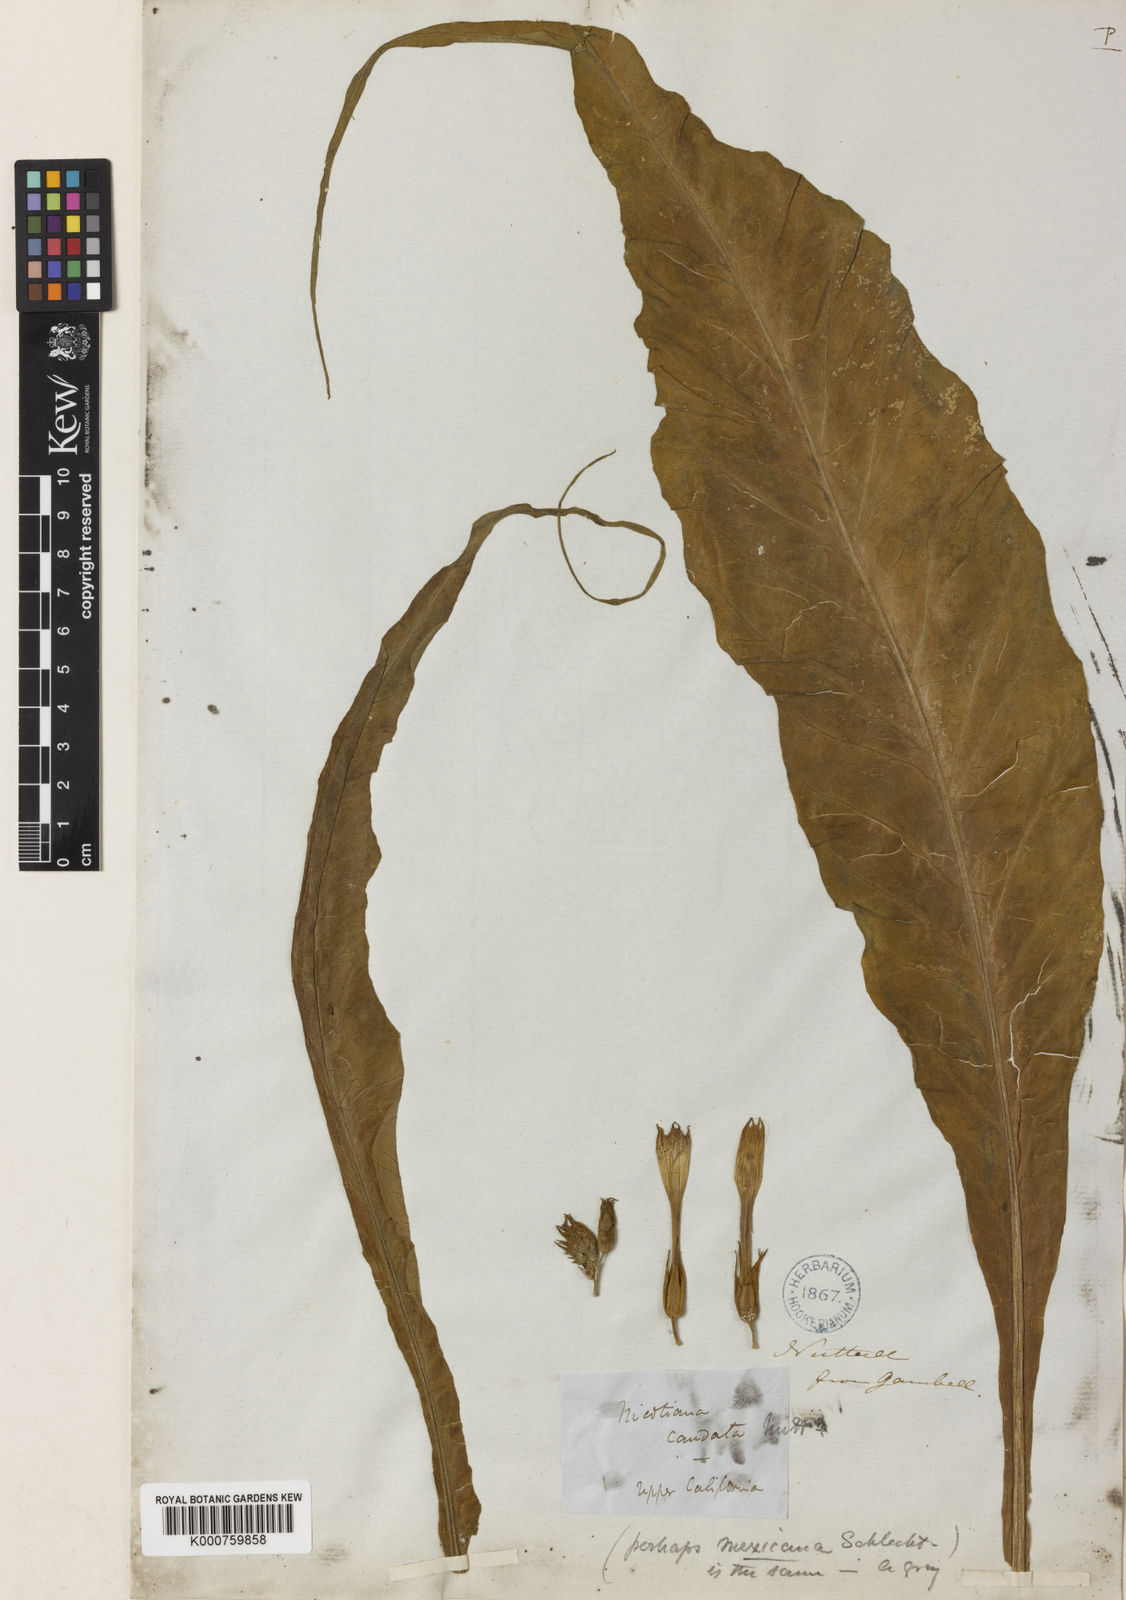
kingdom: Plantae
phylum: Tracheophyta
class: Magnoliopsida
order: Solanales
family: Solanaceae
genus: Nicotiana
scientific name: Nicotiana tabacum
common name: Tobacco
